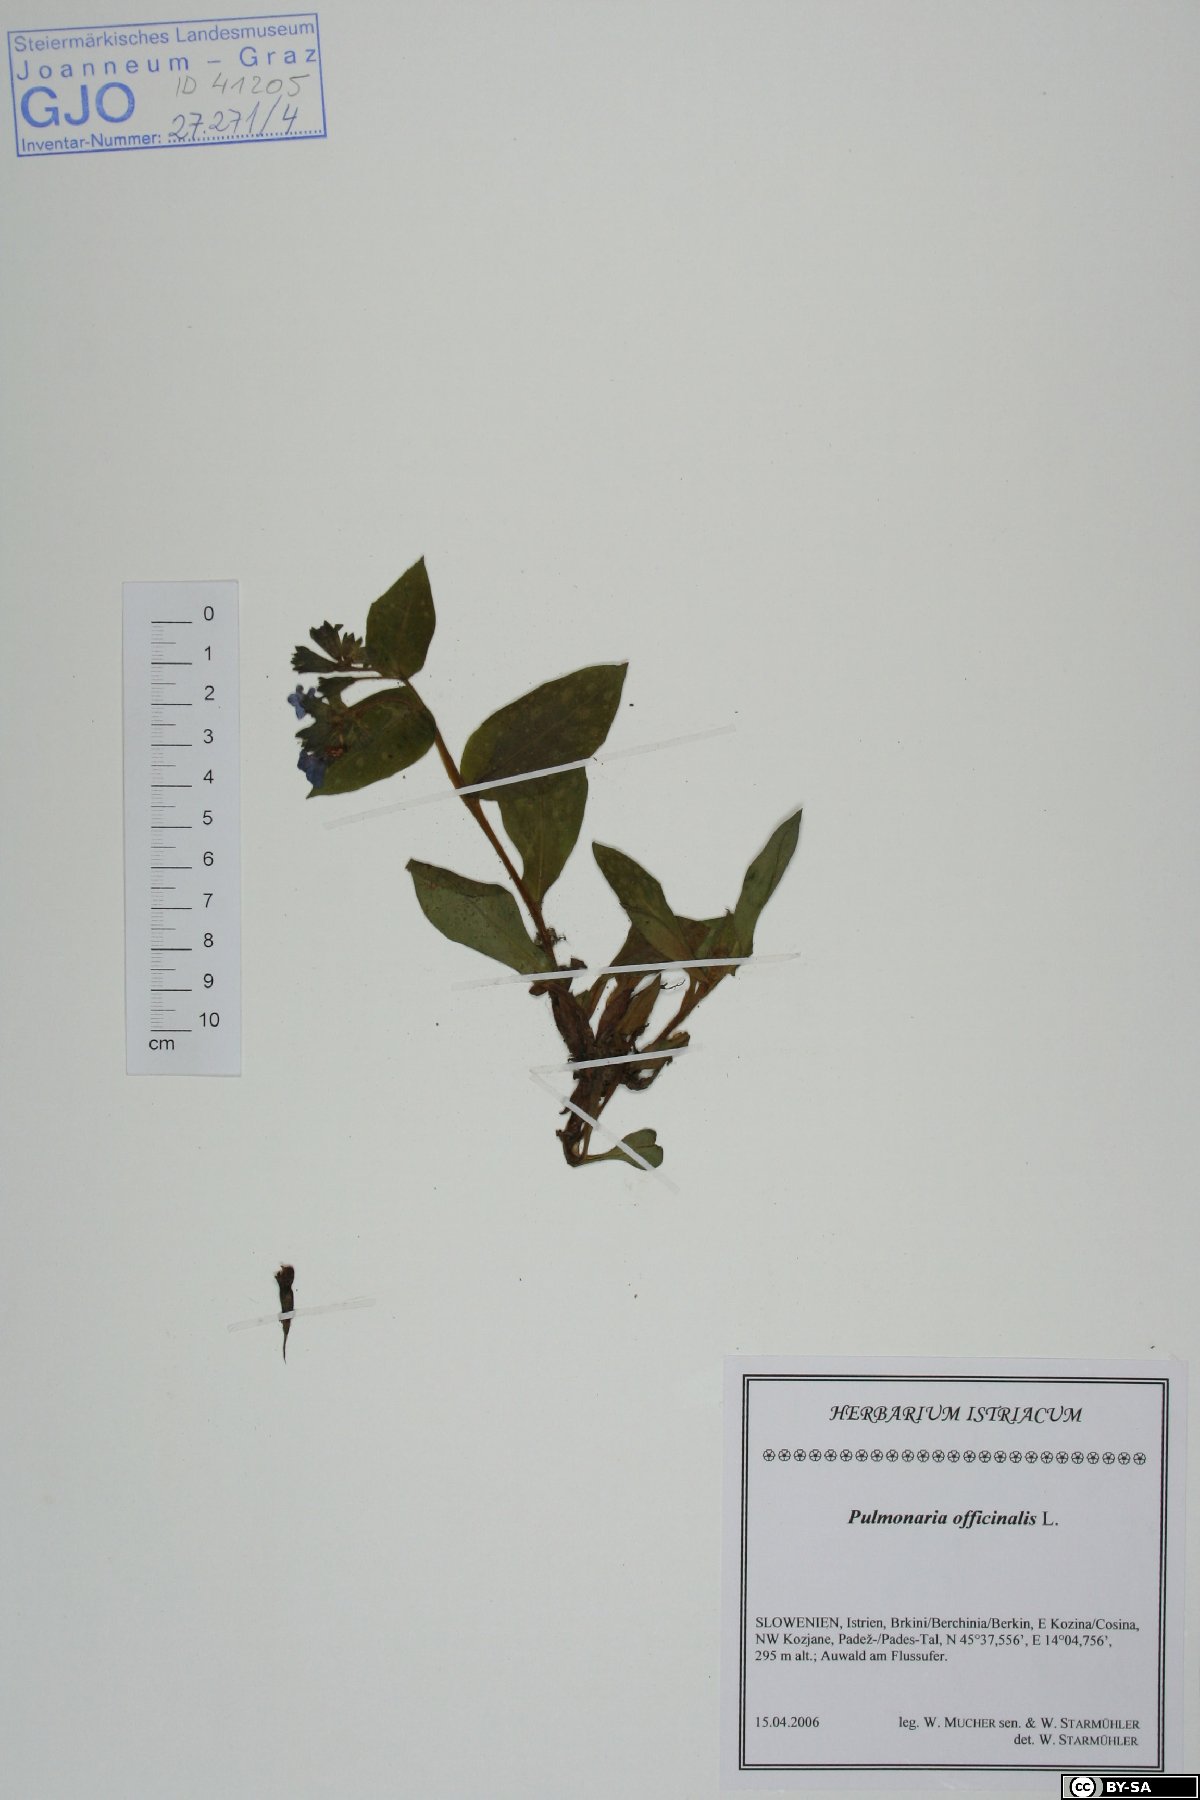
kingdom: Plantae
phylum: Tracheophyta
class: Magnoliopsida
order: Boraginales
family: Boraginaceae
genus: Pulmonaria
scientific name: Pulmonaria officinalis
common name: Lungwort
